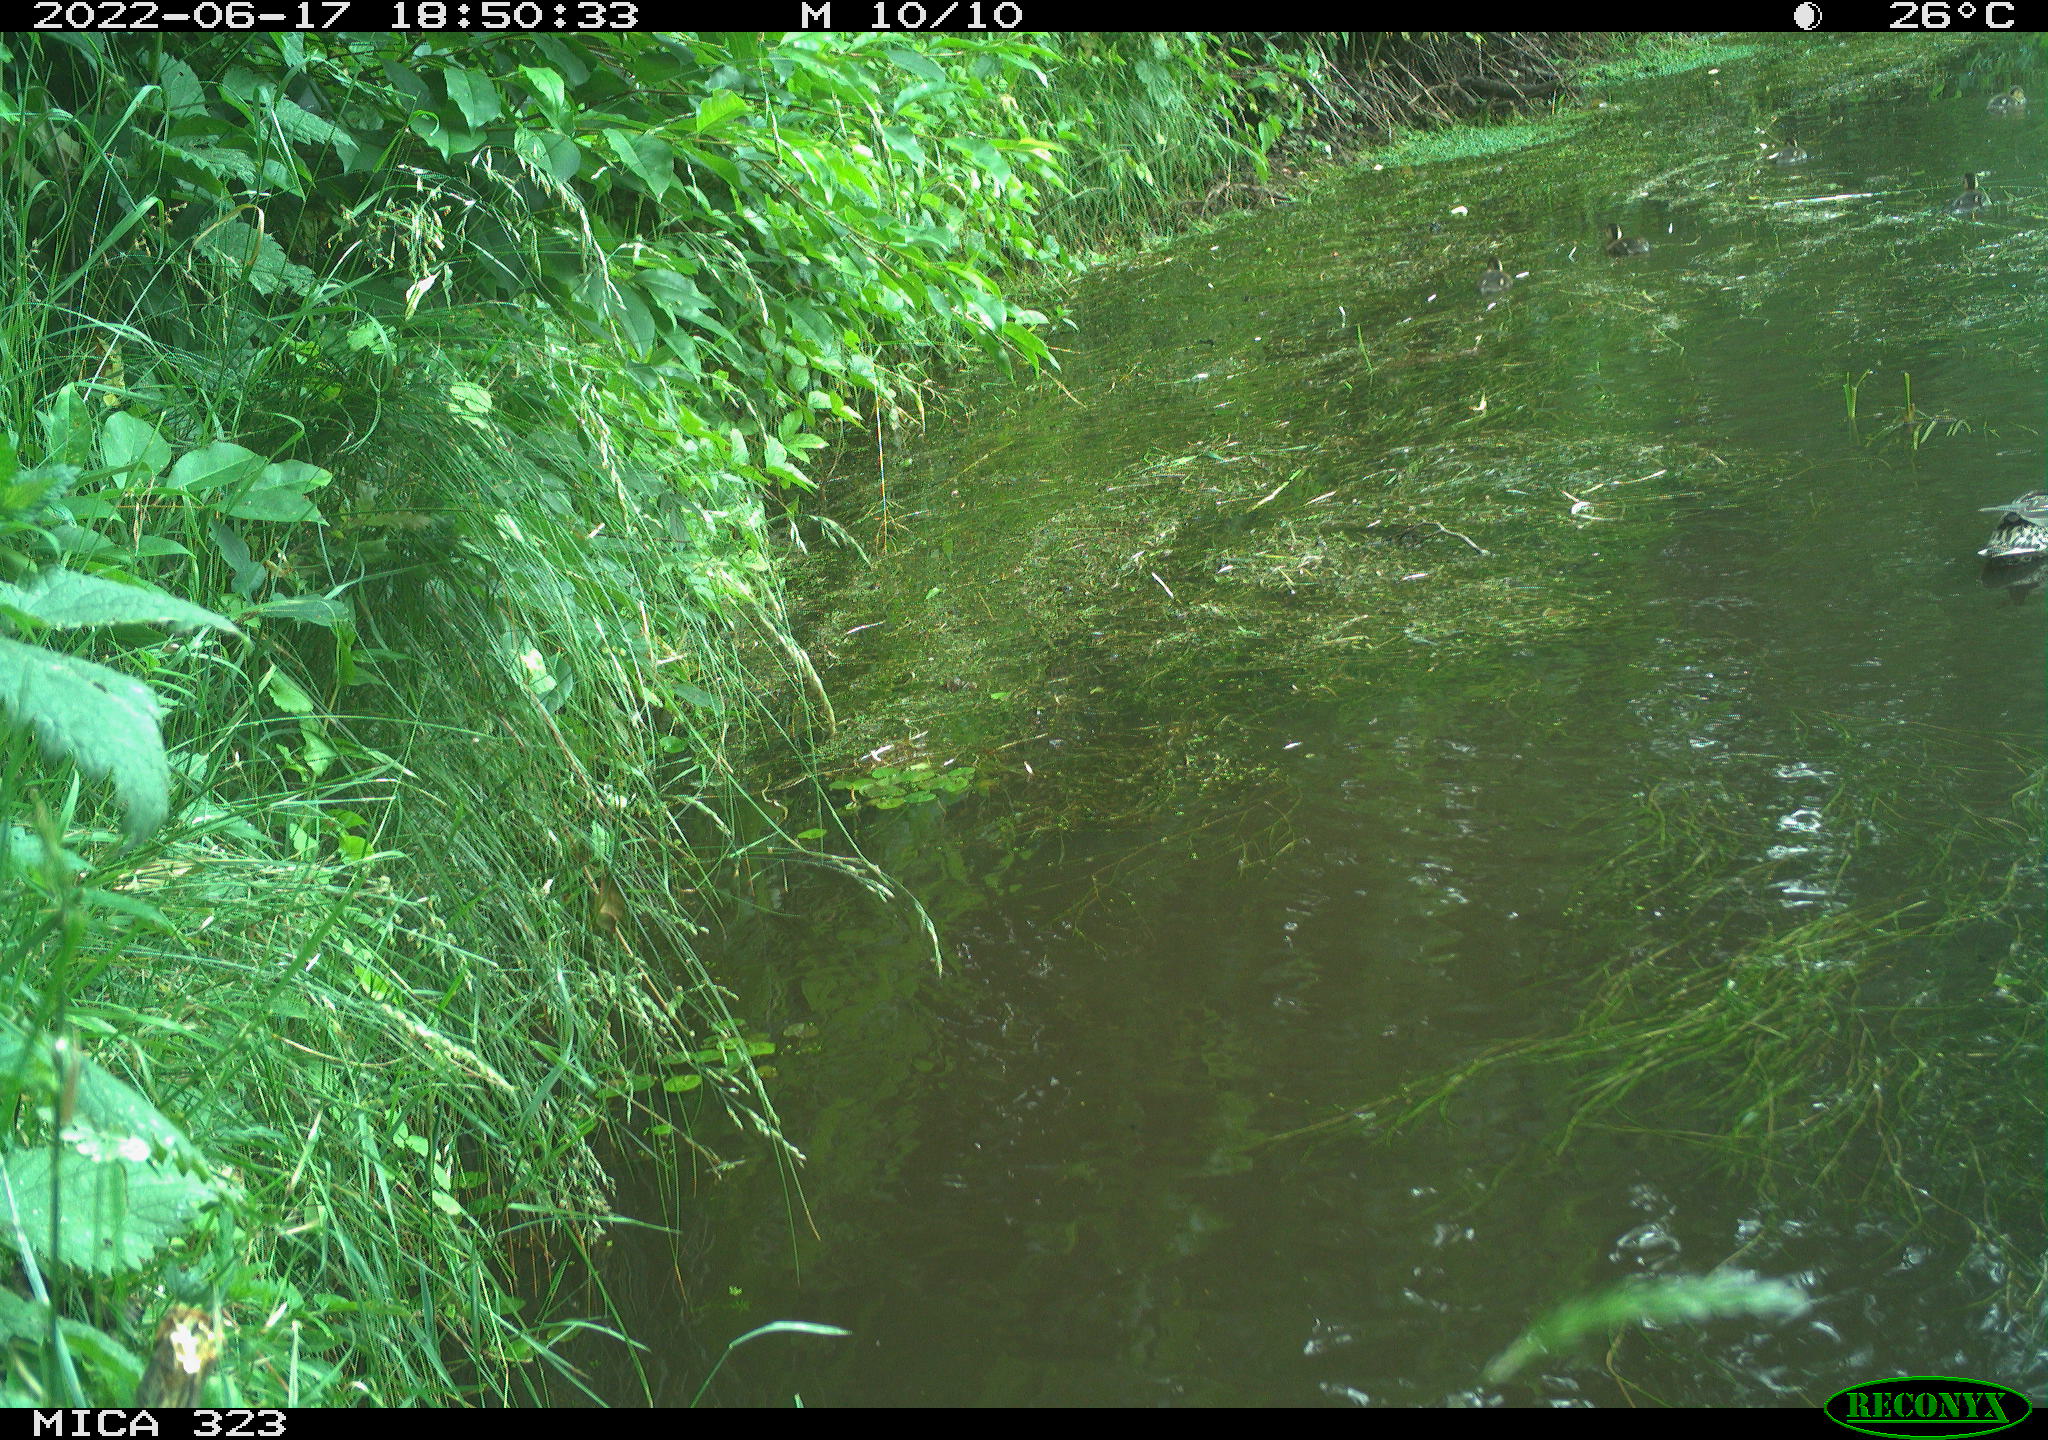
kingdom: Animalia
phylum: Chordata
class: Aves
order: Anseriformes
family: Anatidae
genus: Anas
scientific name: Anas platyrhynchos
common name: Mallard
